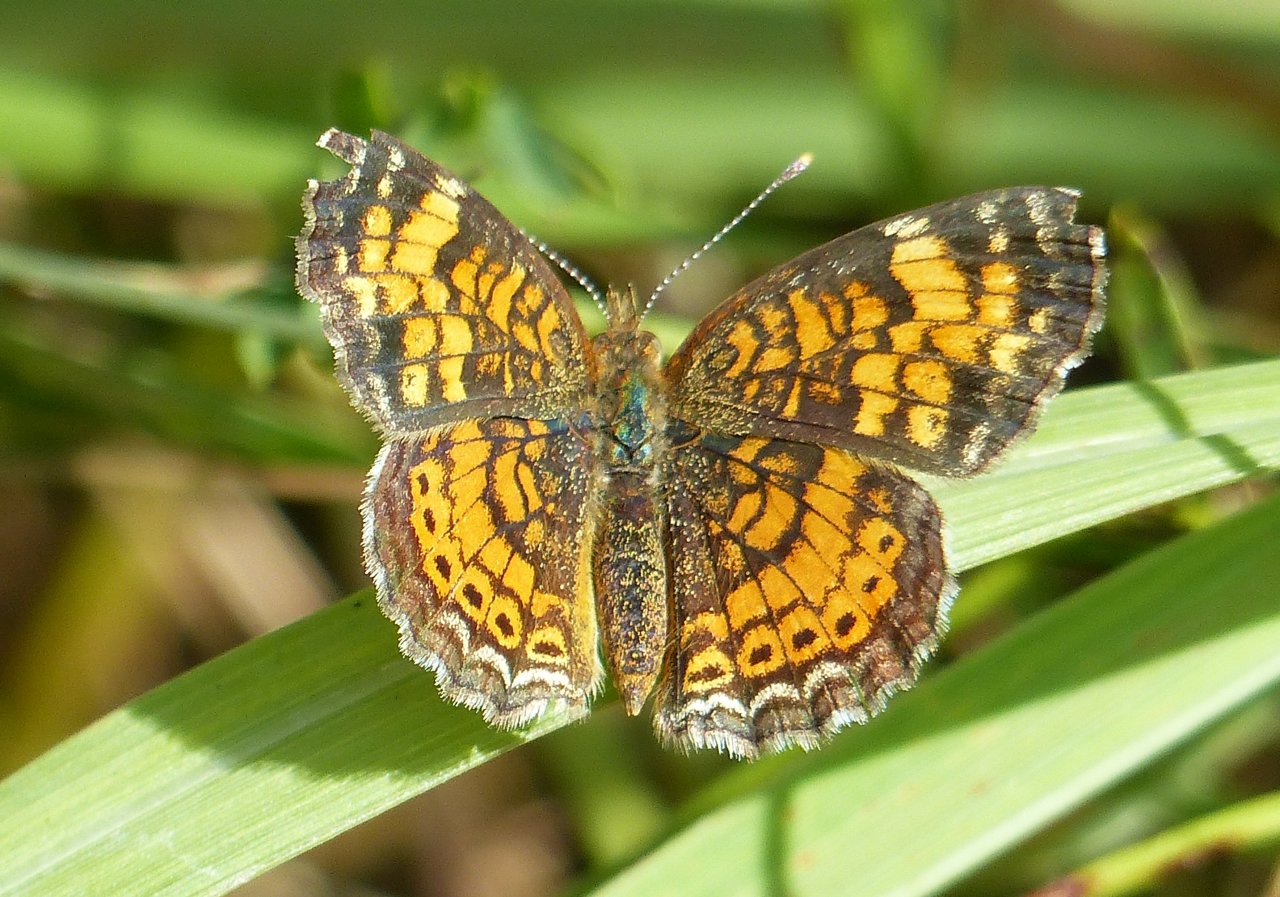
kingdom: Animalia
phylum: Arthropoda
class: Insecta
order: Lepidoptera
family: Nymphalidae
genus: Phyciodes
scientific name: Phyciodes tharos
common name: Pearl Crescent
